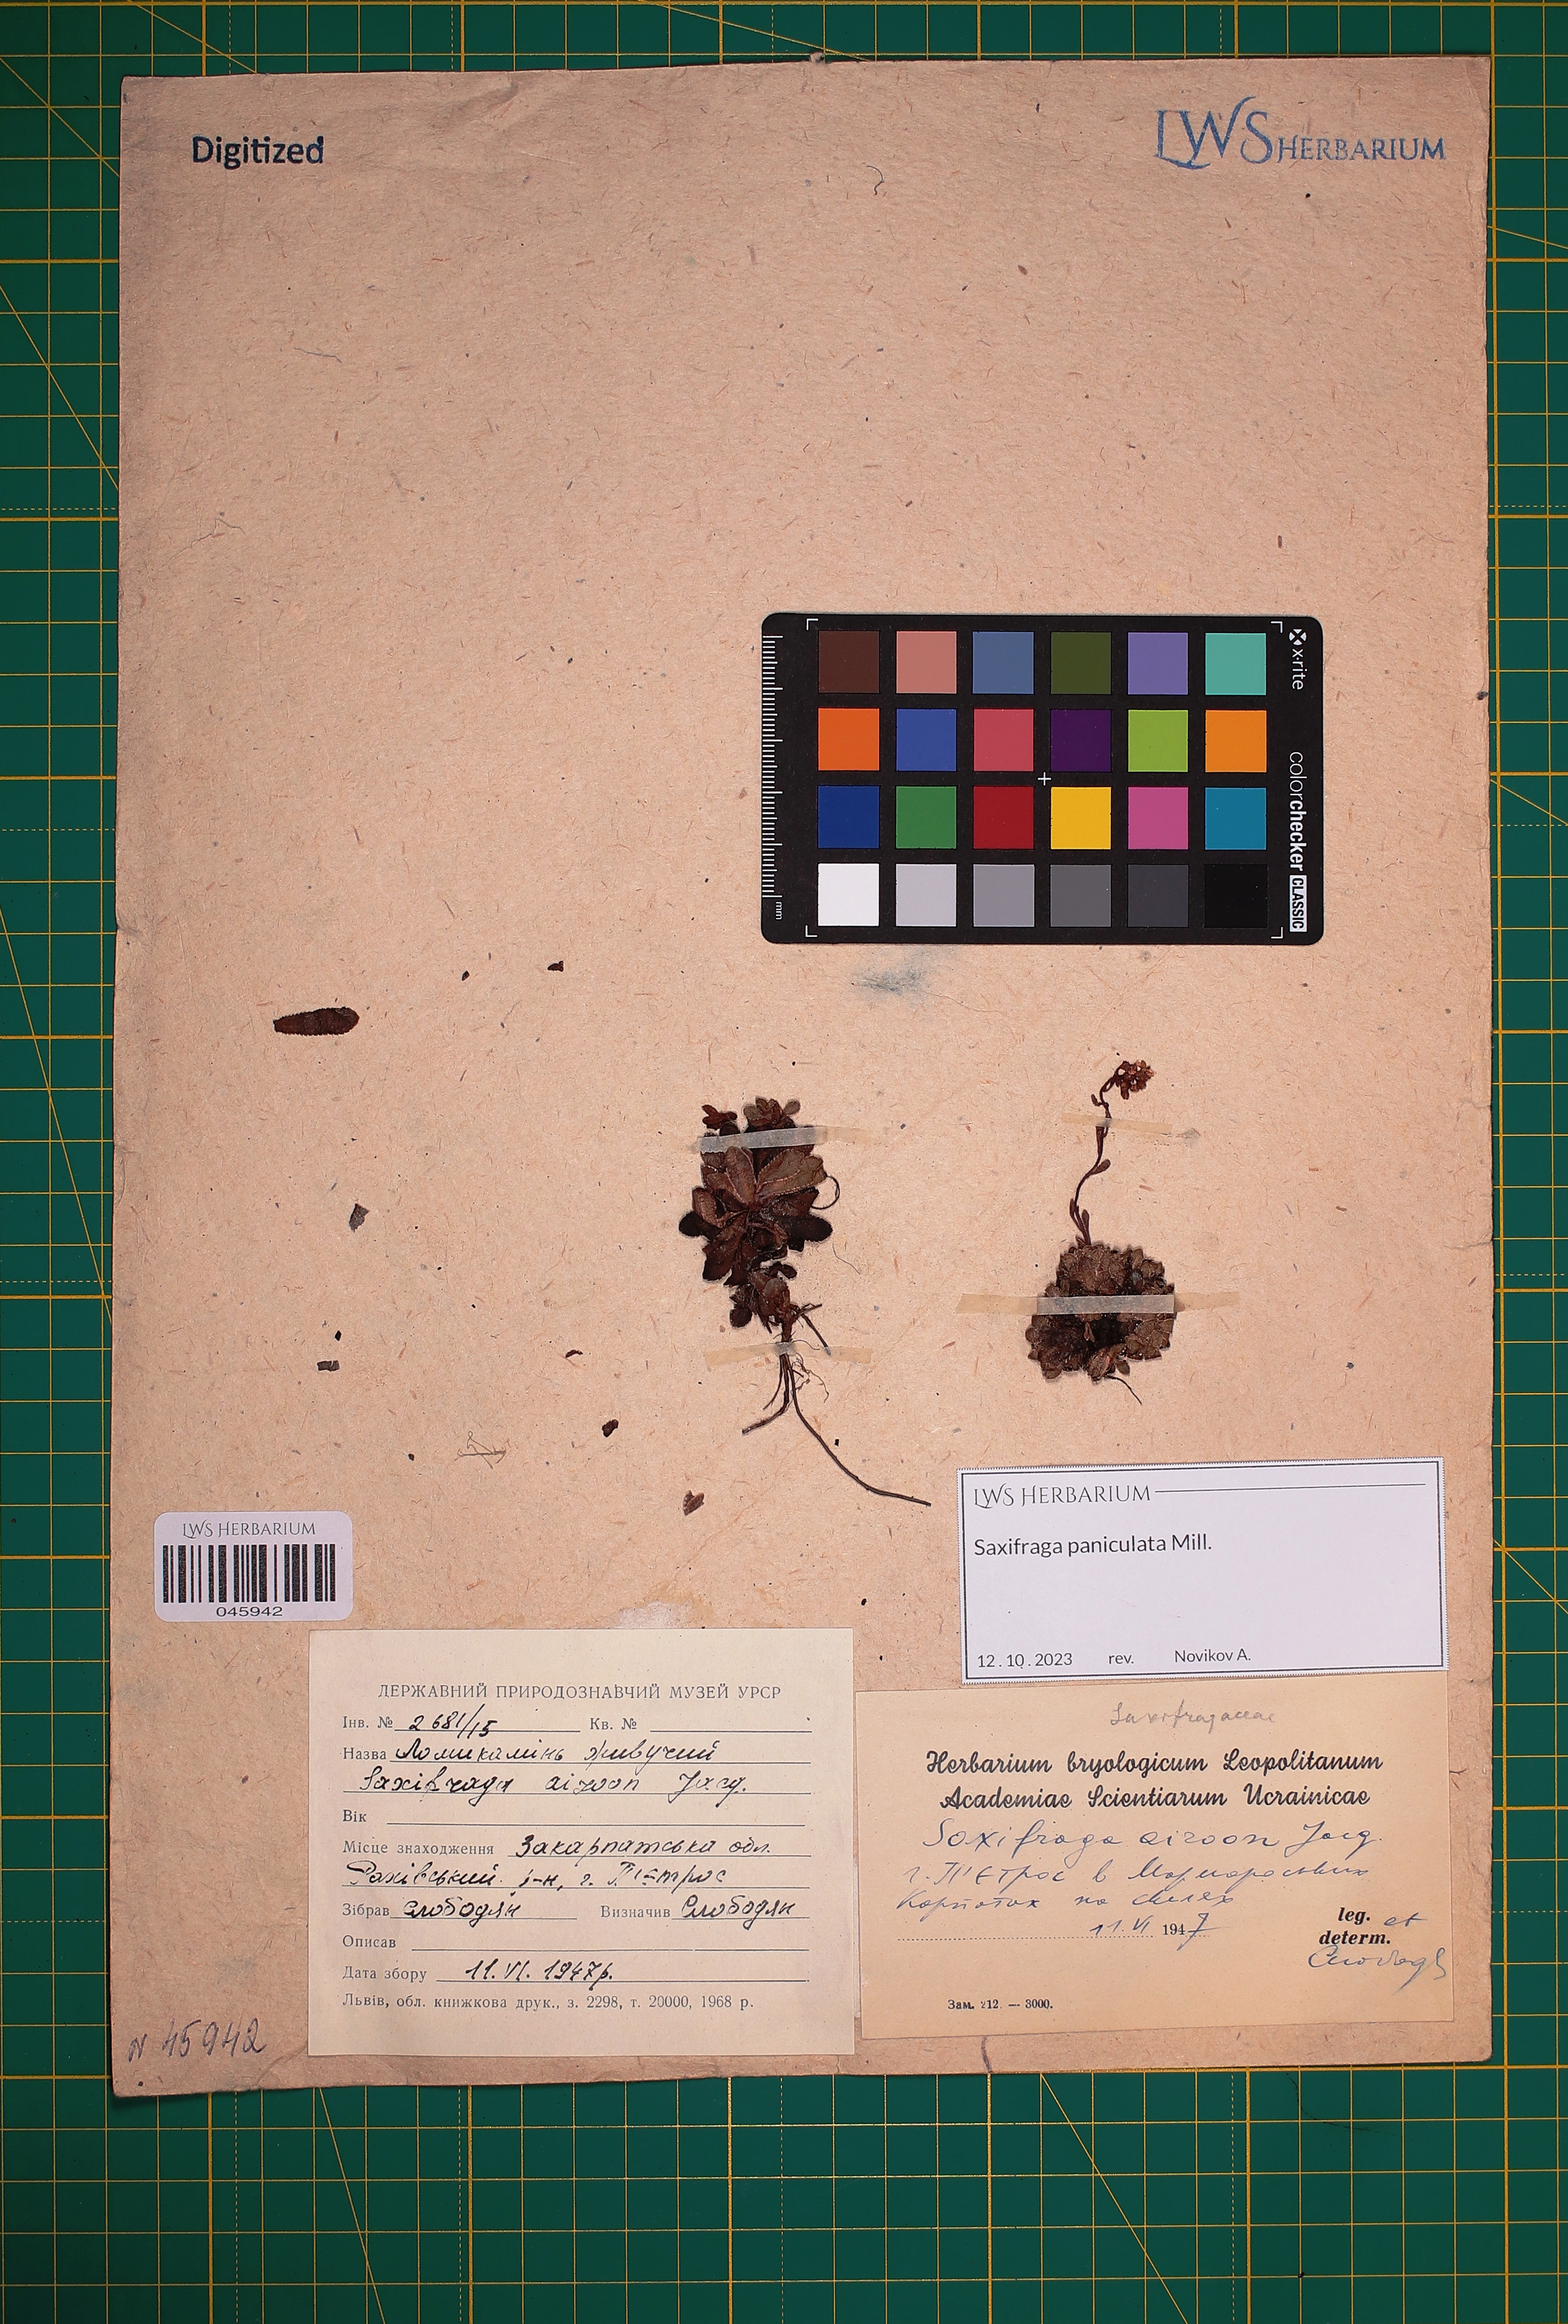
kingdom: Plantae
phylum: Tracheophyta
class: Magnoliopsida
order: Saxifragales
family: Saxifragaceae
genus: Saxifraga
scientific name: Saxifraga paniculata
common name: Livelong saxifrage
